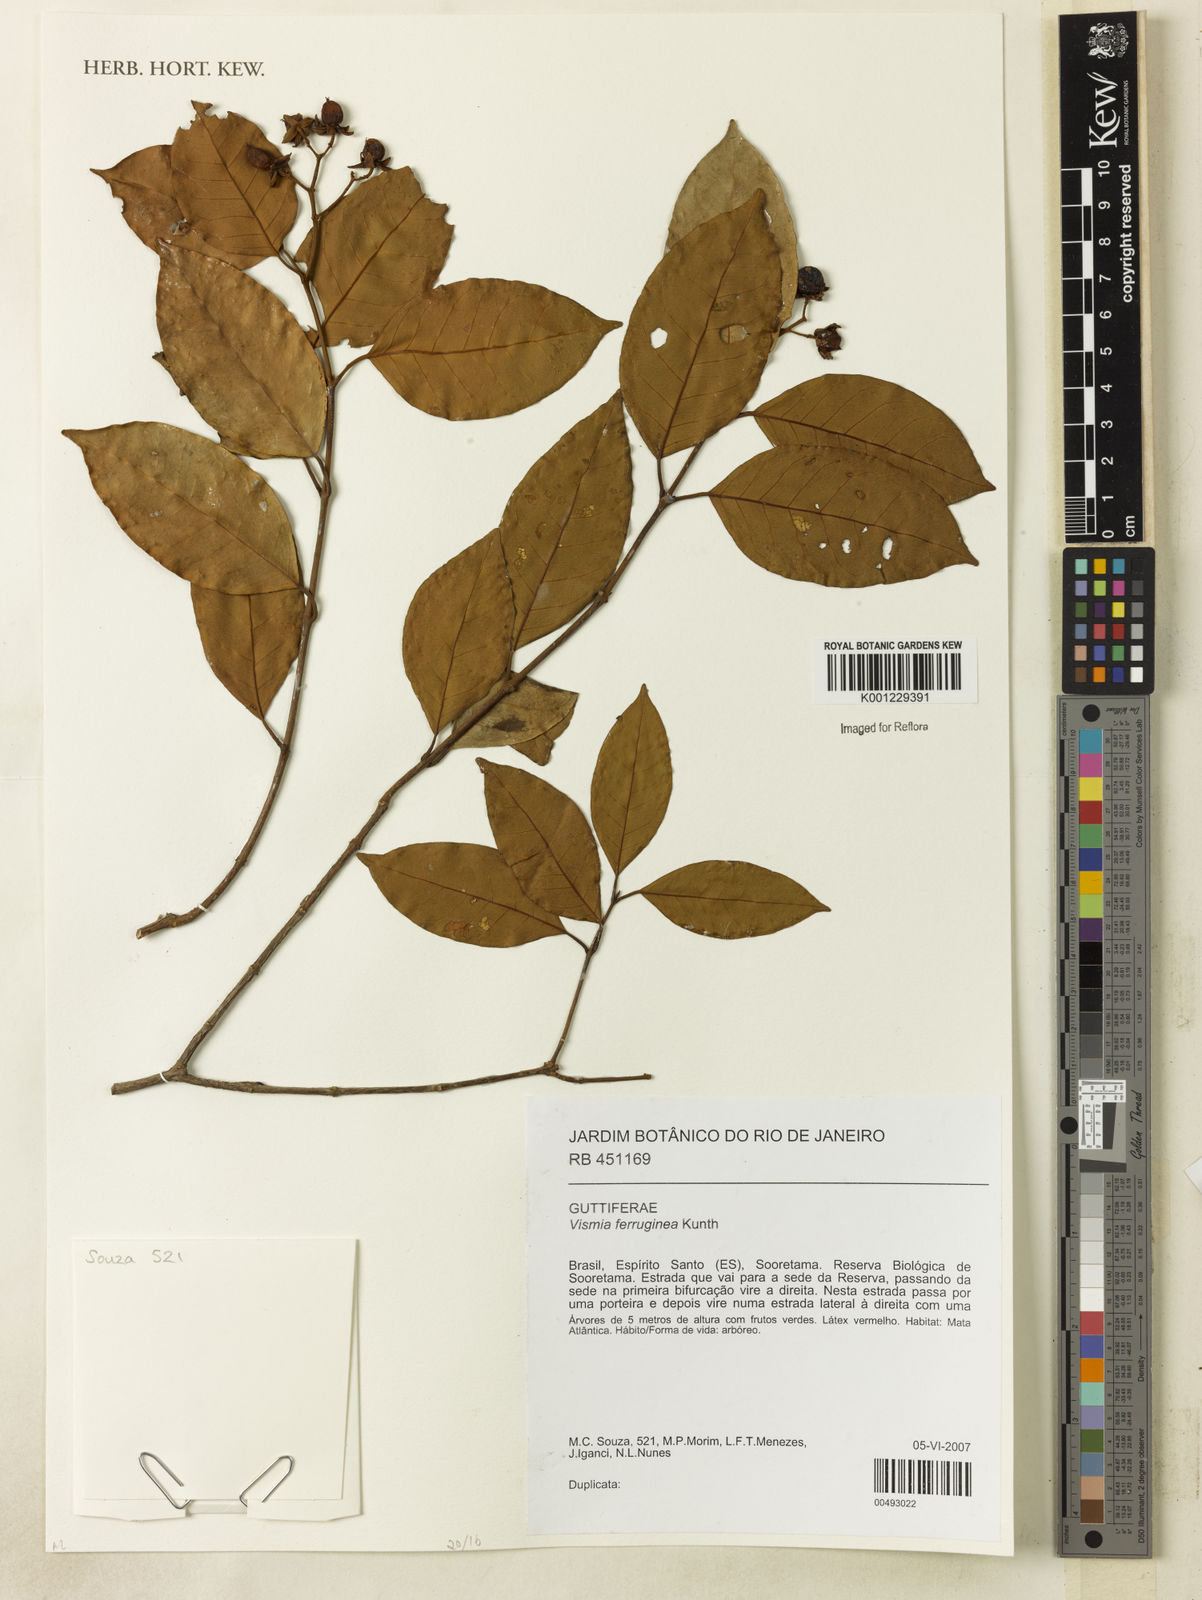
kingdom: Plantae
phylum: Tracheophyta
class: Magnoliopsida
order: Malpighiales
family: Hypericaceae
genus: Vismia
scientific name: Vismia ferruginea
